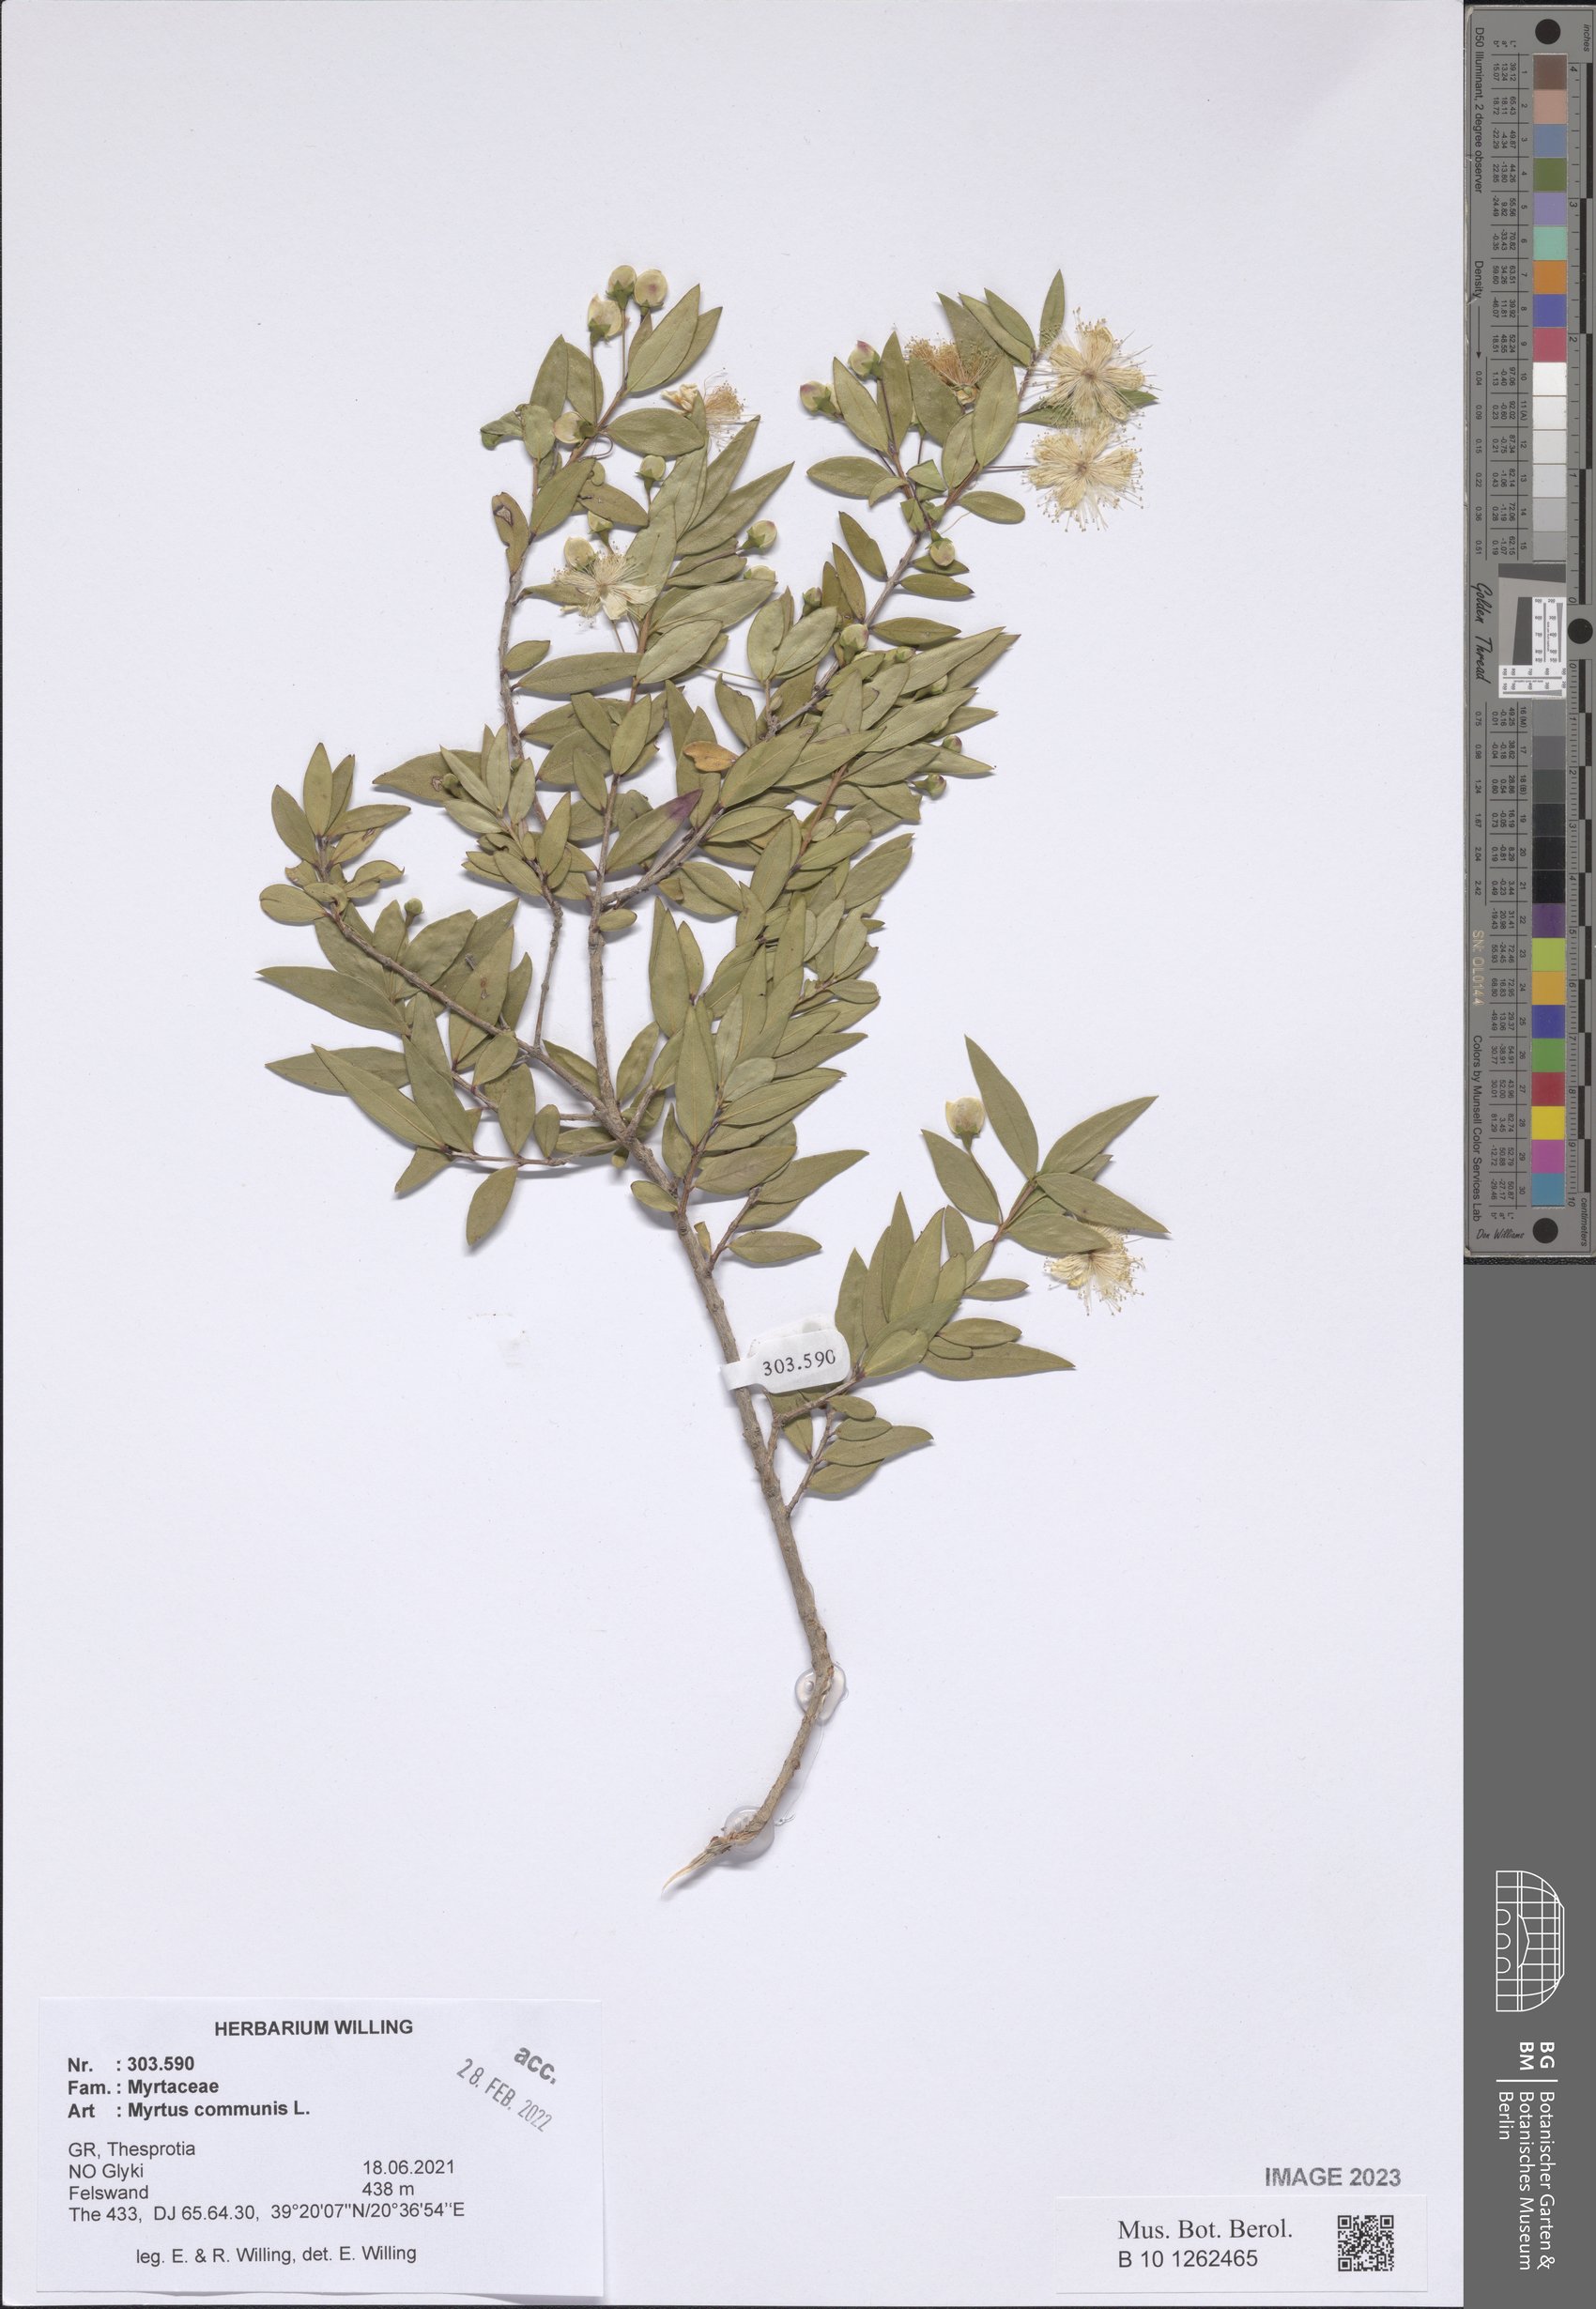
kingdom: Plantae
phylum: Tracheophyta
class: Magnoliopsida
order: Myrtales
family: Myrtaceae
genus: Myrtus
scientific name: Myrtus communis
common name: Myrtle
